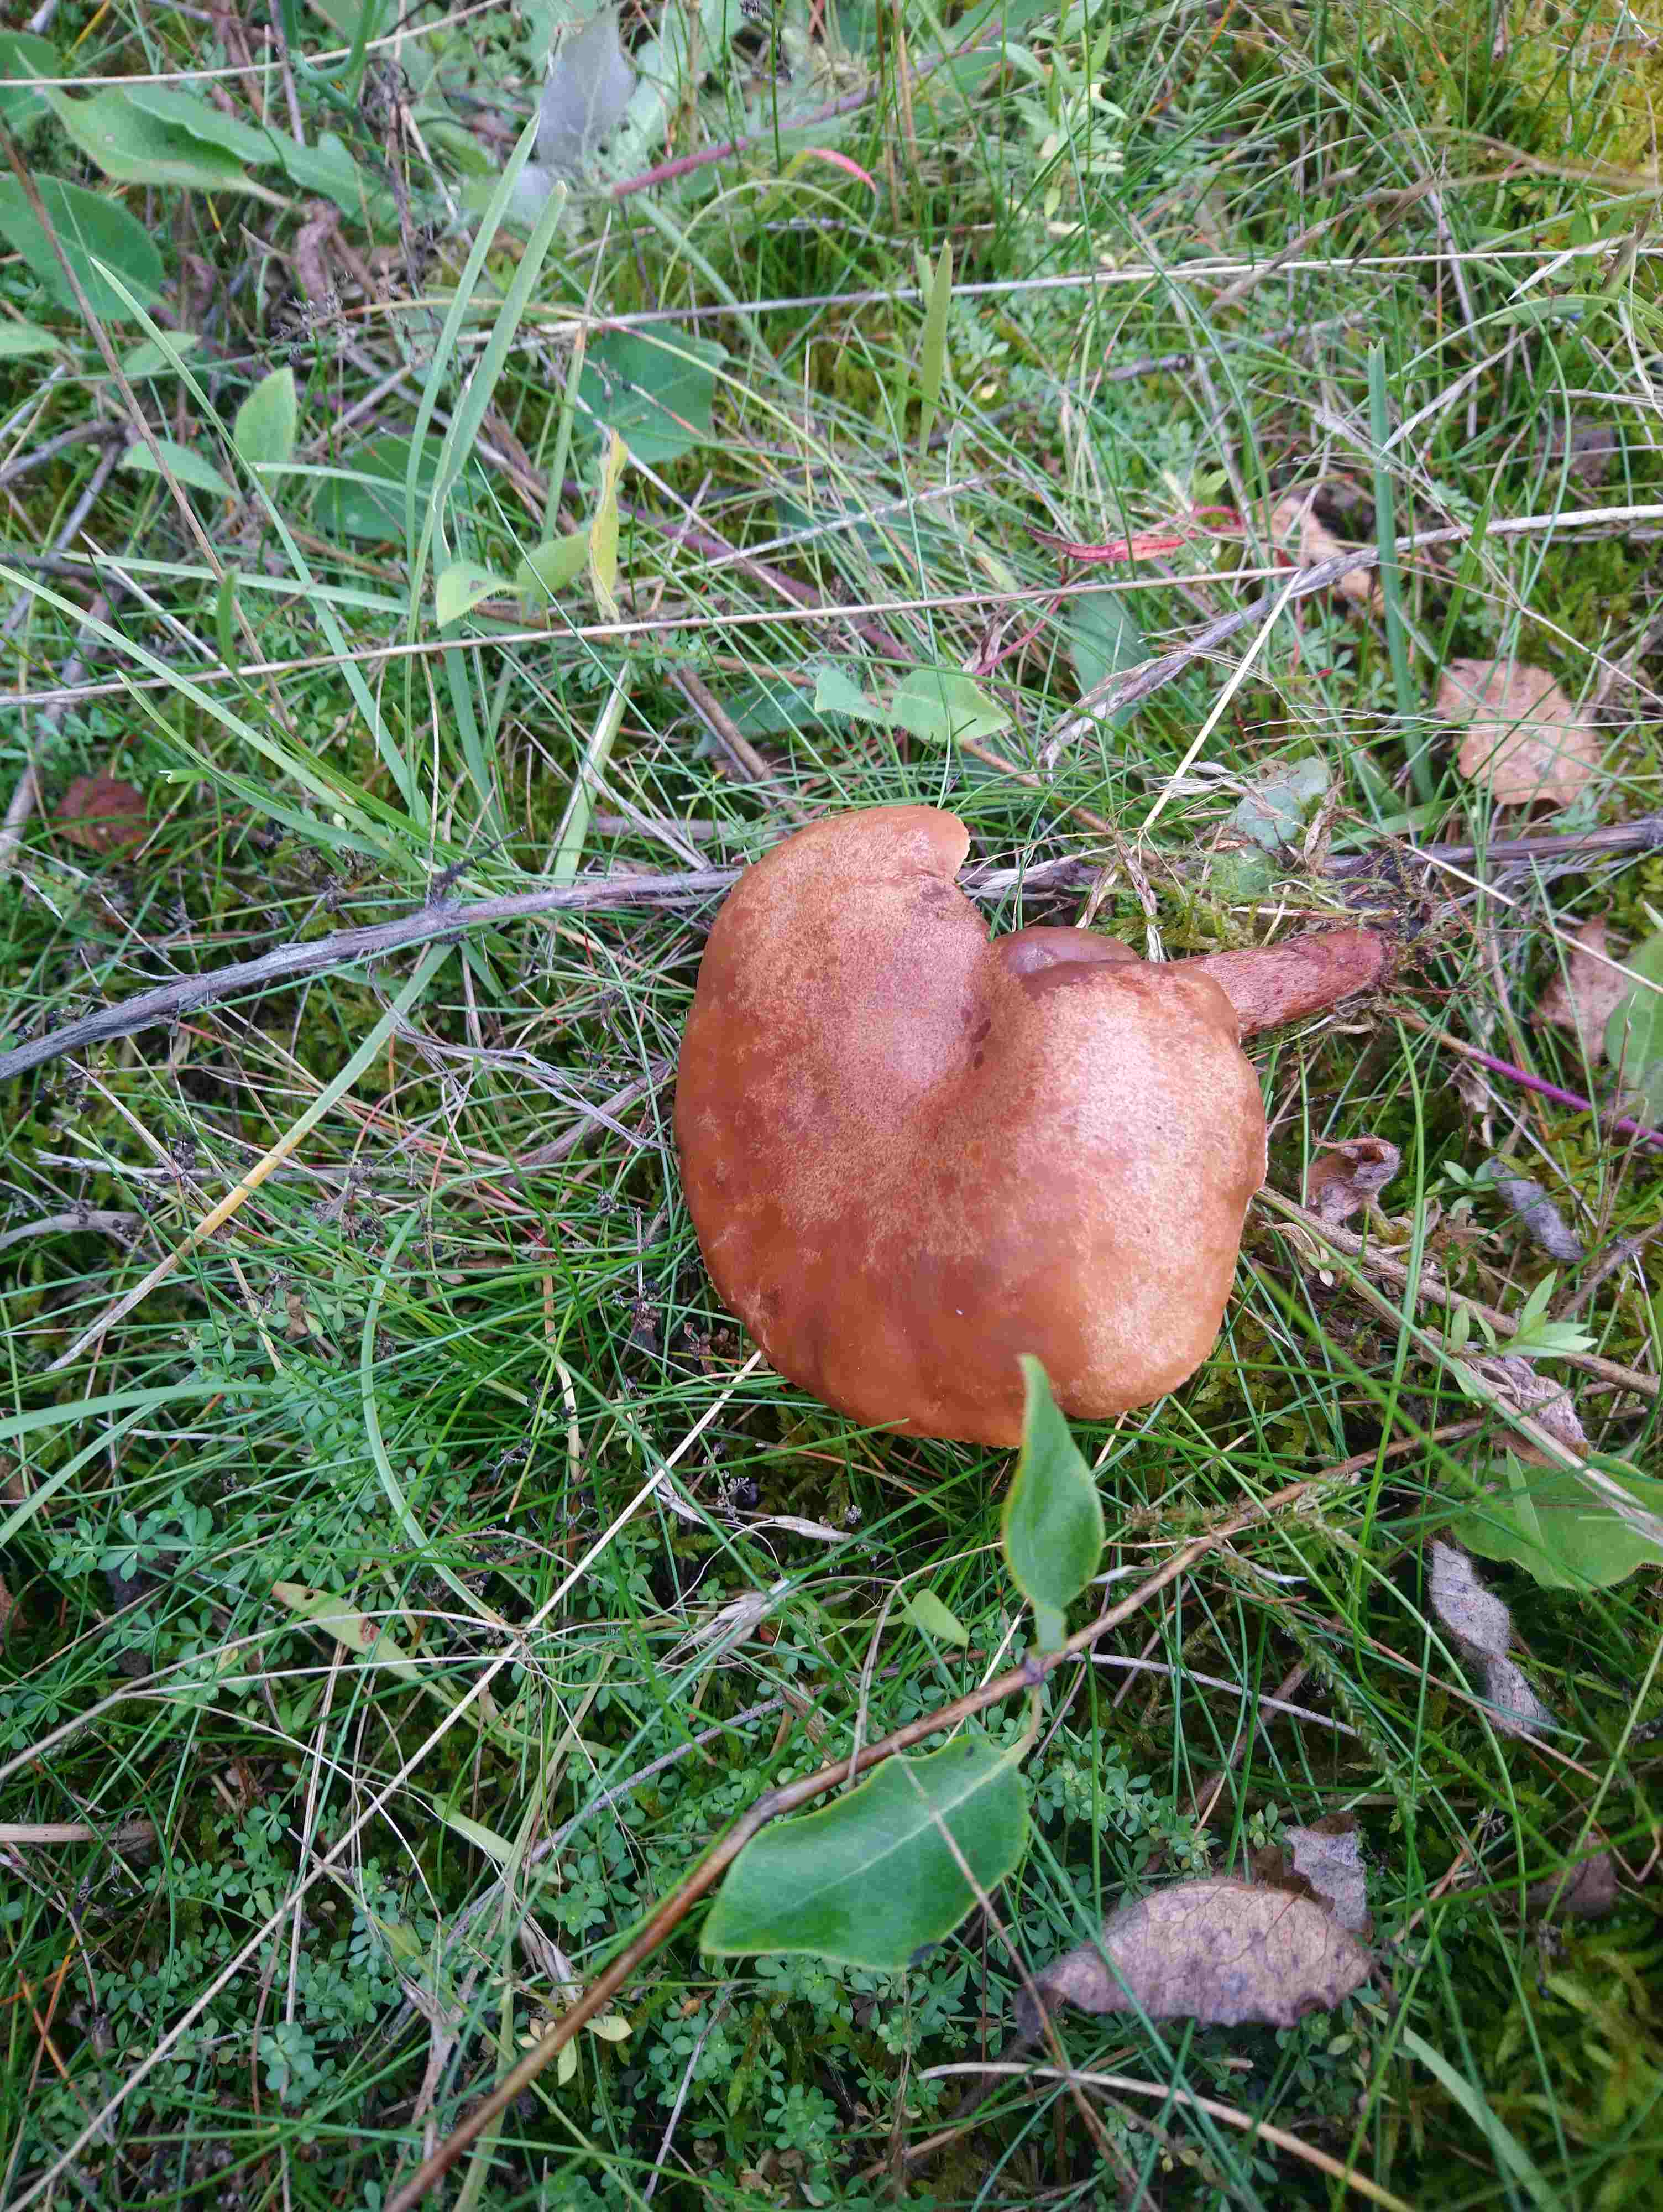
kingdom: Fungi
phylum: Basidiomycota
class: Agaricomycetes
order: Russulales
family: Russulaceae
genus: Lactarius
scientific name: Lactarius
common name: mælkehat
